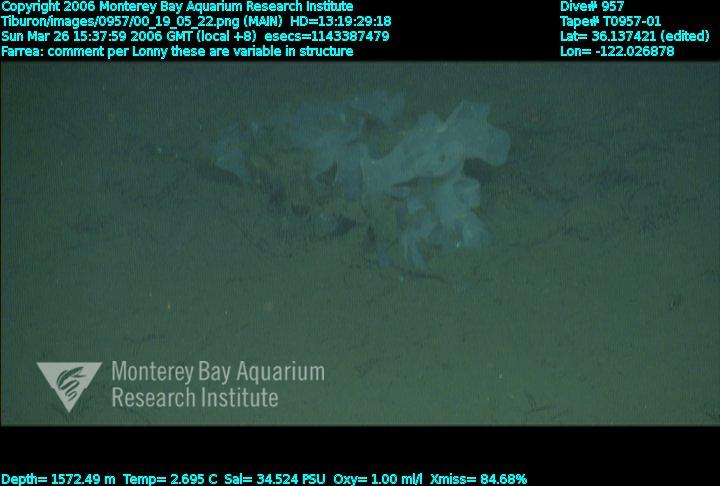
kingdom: Animalia
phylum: Porifera
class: Hexactinellida
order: Sceptrulophora
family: Farreidae
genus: Farrea
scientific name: Farrea
